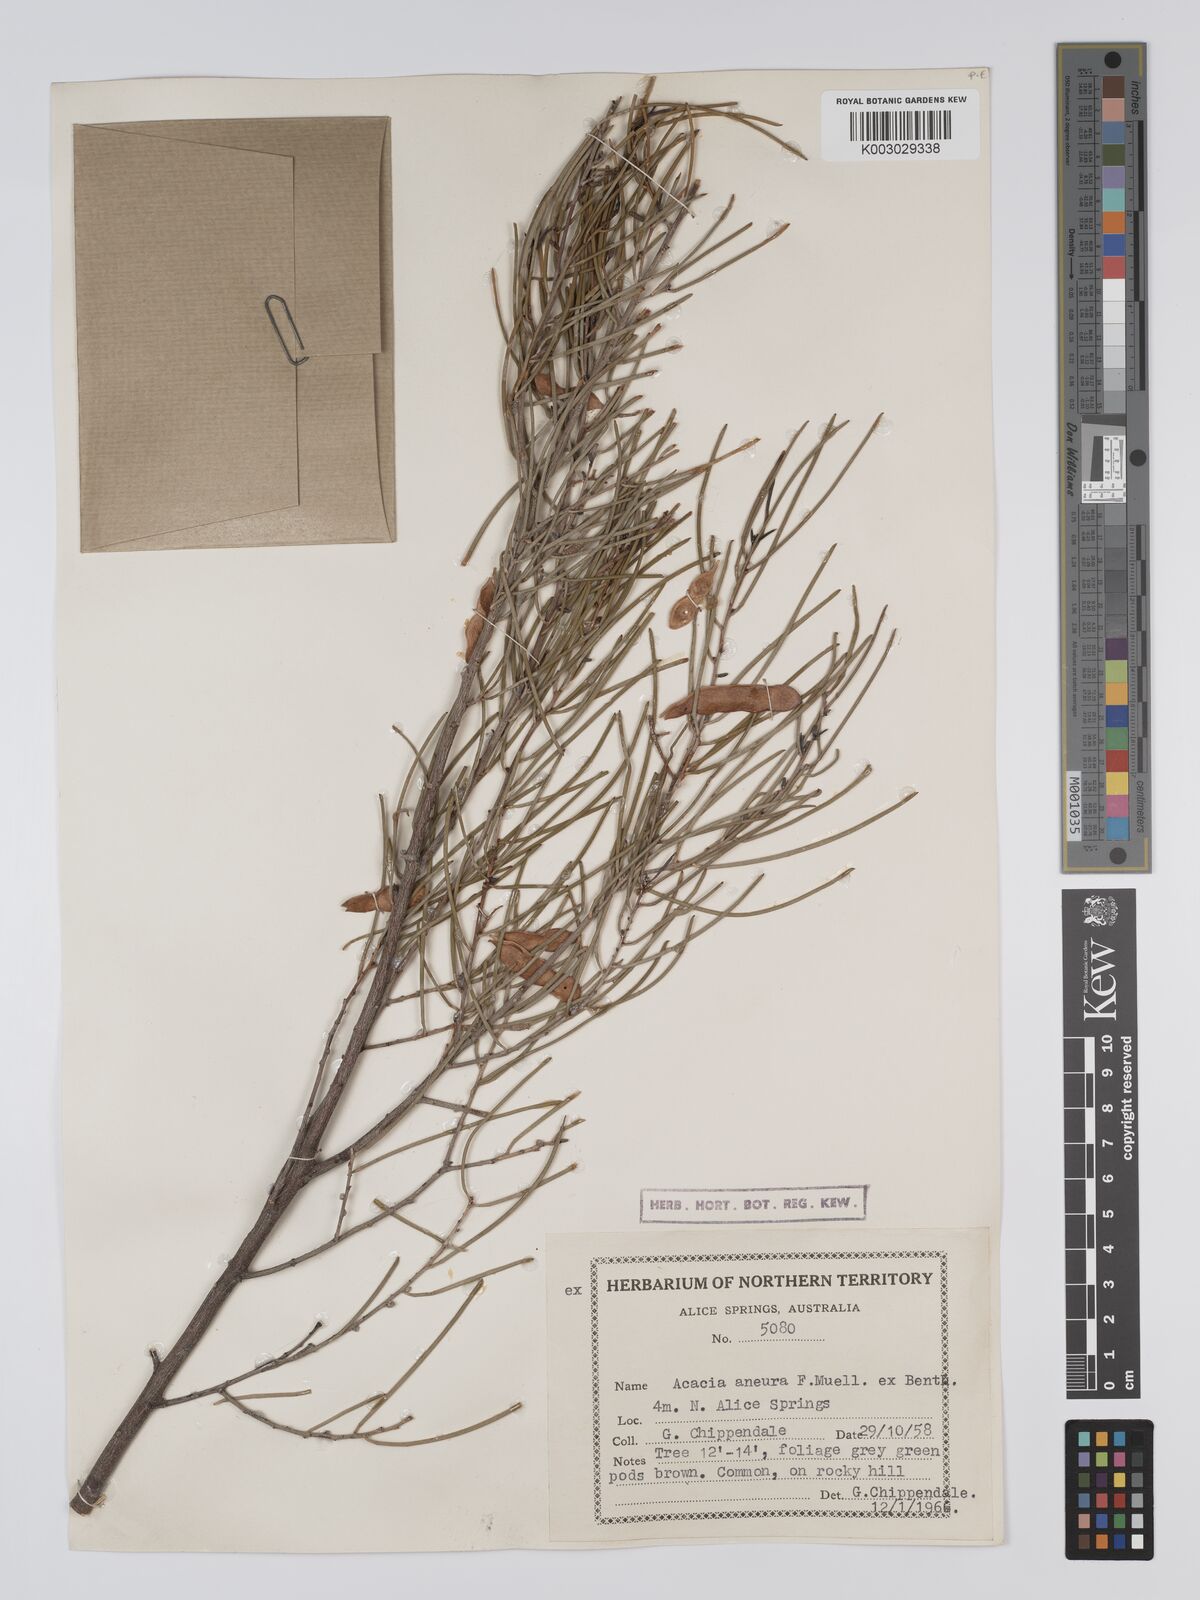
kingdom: Plantae
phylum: Tracheophyta
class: Magnoliopsida
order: Fabales
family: Fabaceae
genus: Acacia
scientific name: Acacia aneura
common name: Mulga
